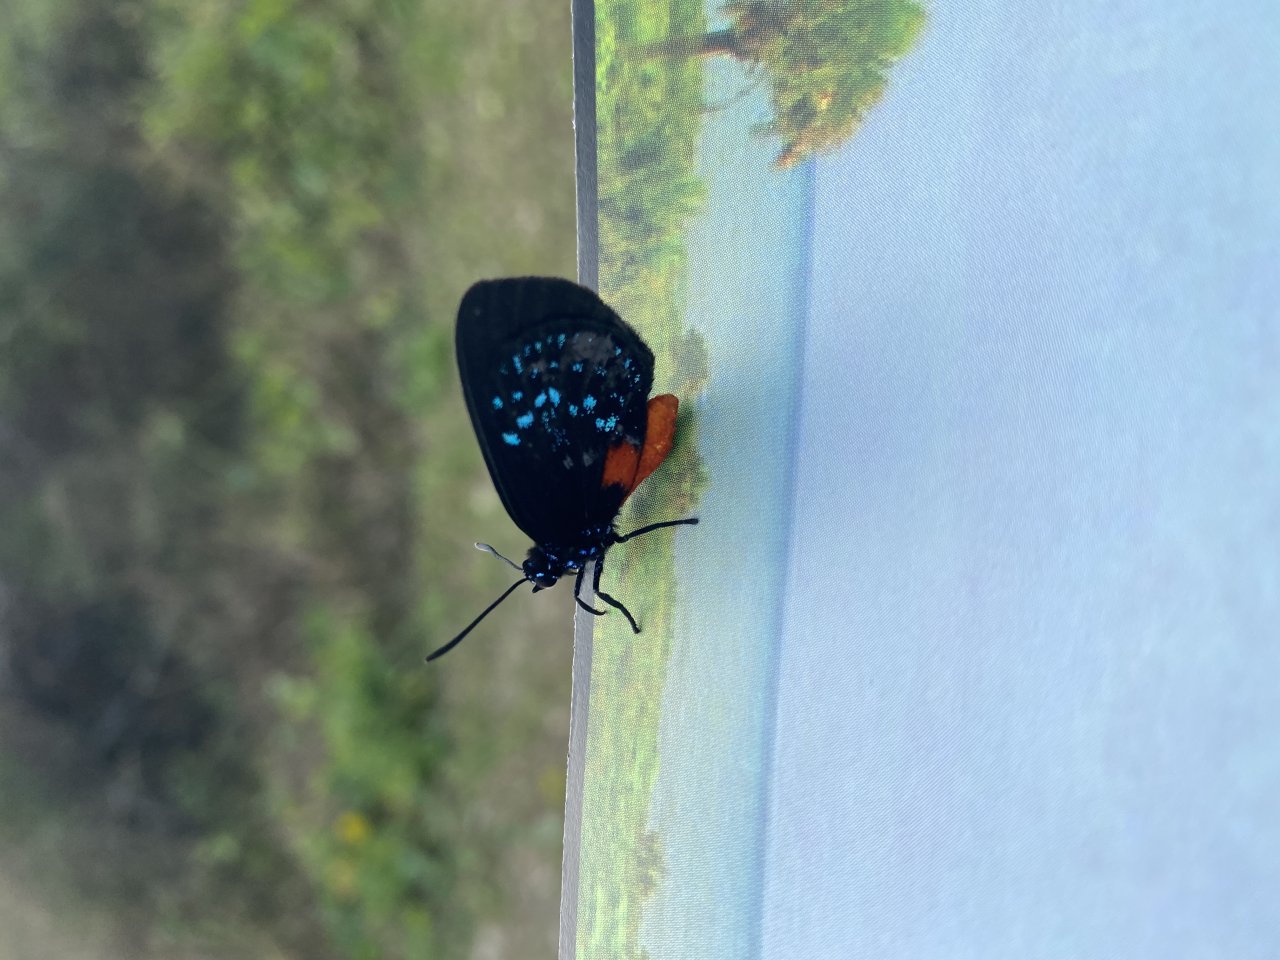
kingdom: Animalia
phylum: Arthropoda
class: Insecta
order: Lepidoptera
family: Lycaenidae
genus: Eumaeus
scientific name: Eumaeus atala
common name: Atala
